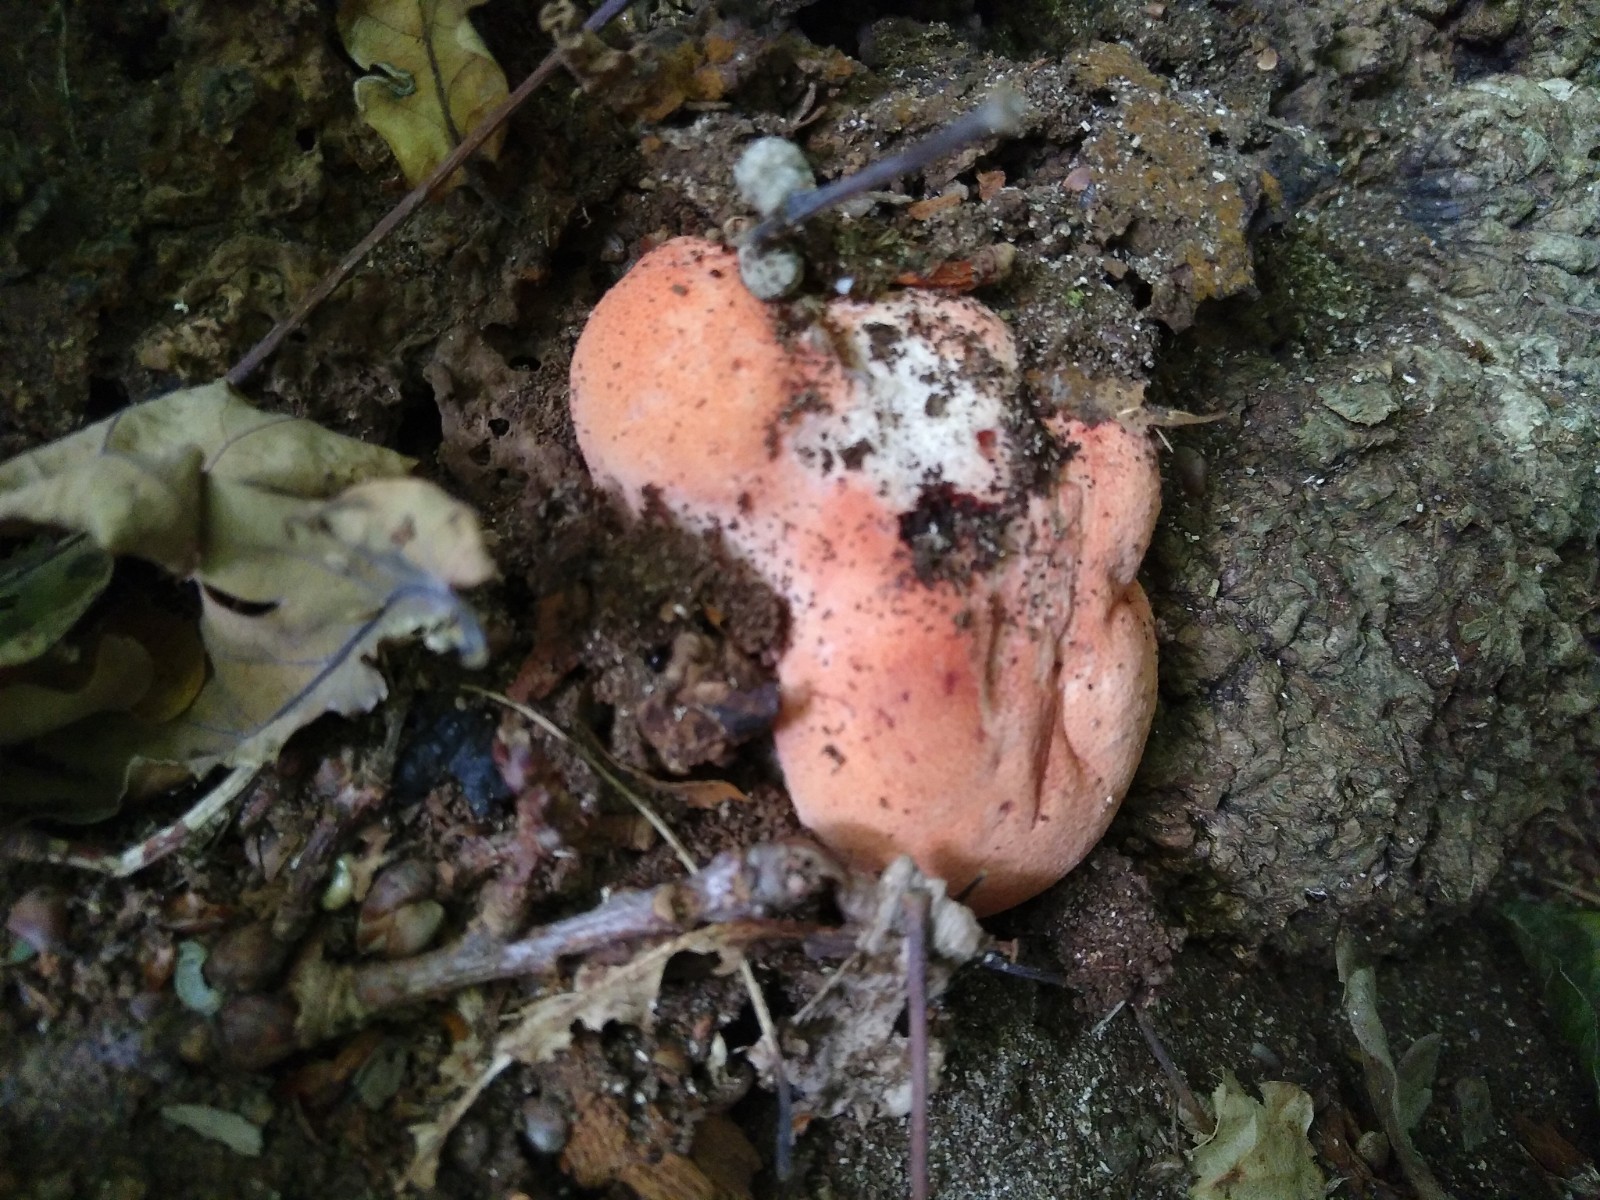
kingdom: Fungi
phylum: Basidiomycota
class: Agaricomycetes
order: Agaricales
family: Fistulinaceae
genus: Fistulina
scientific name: Fistulina hepatica
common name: oksetunge
